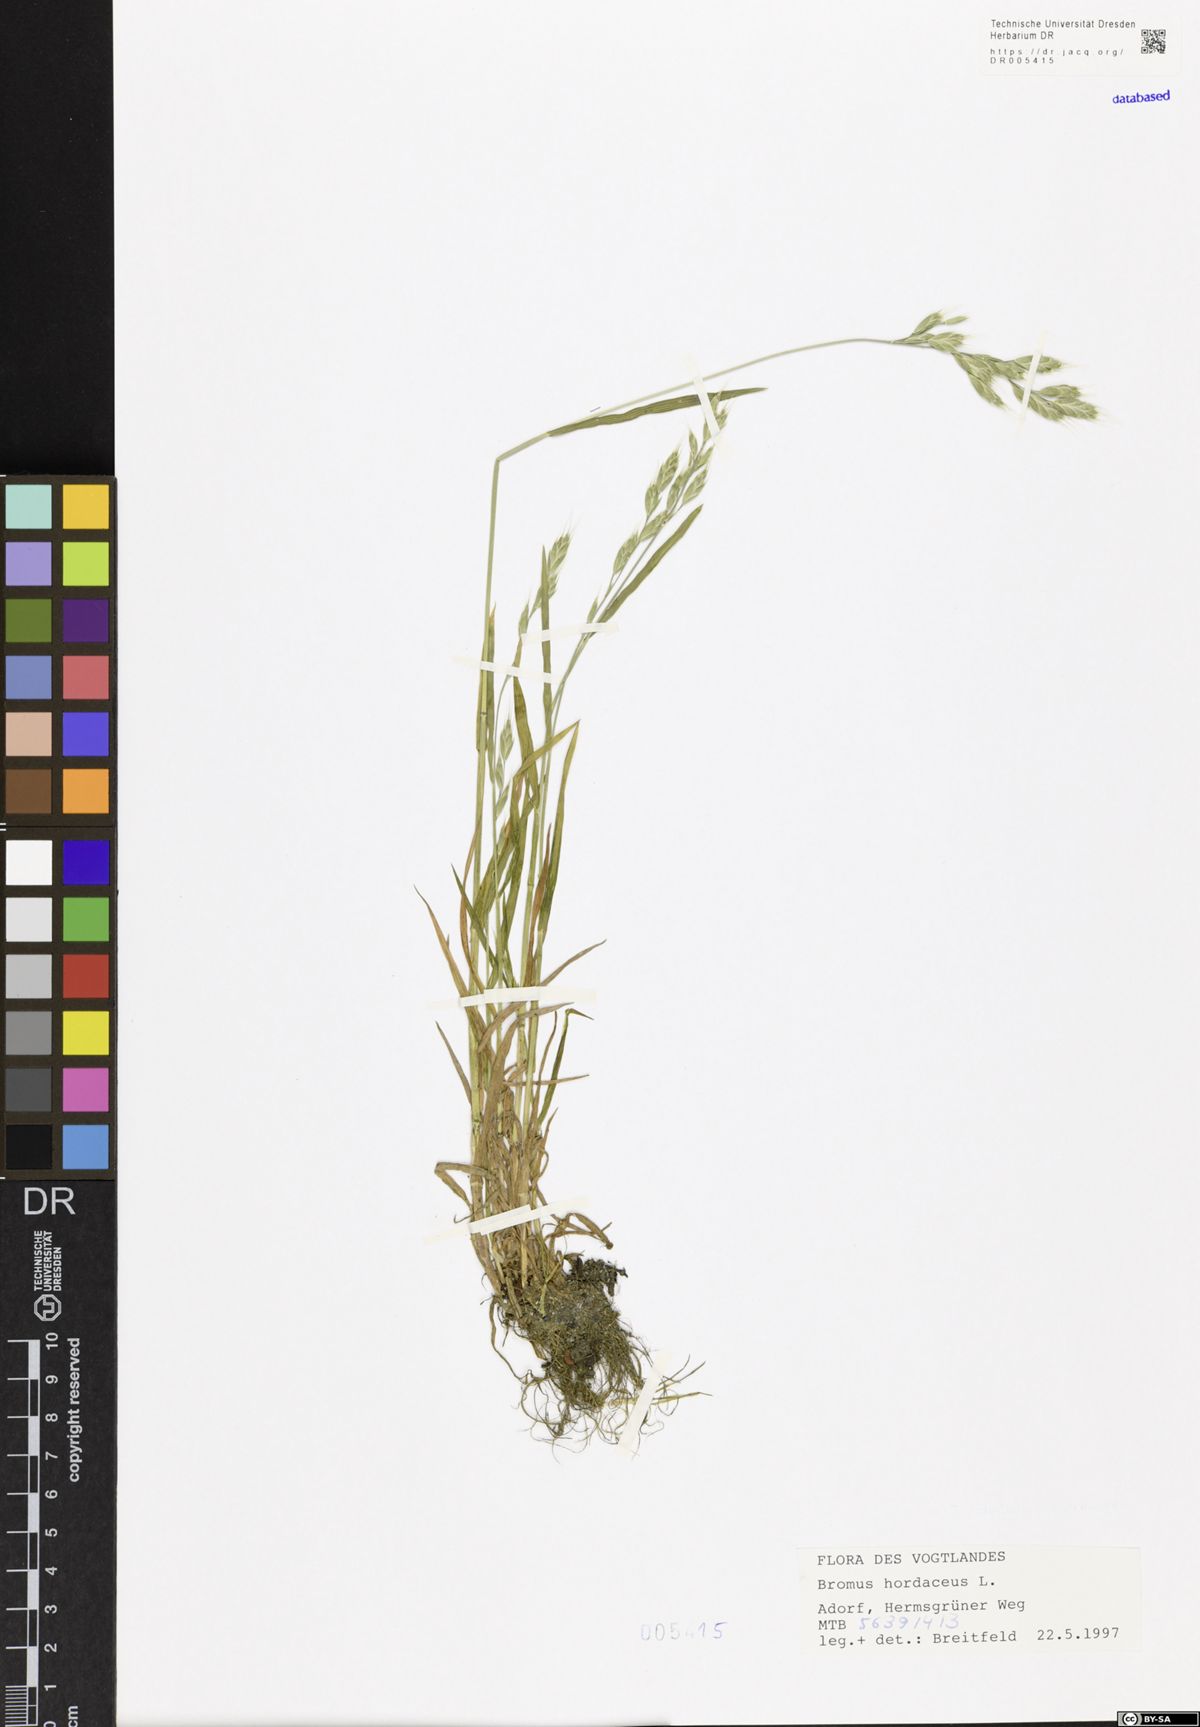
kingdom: Plantae
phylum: Tracheophyta
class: Liliopsida
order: Poales
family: Poaceae
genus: Bromus
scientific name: Bromus hordeaceus
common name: Soft brome
